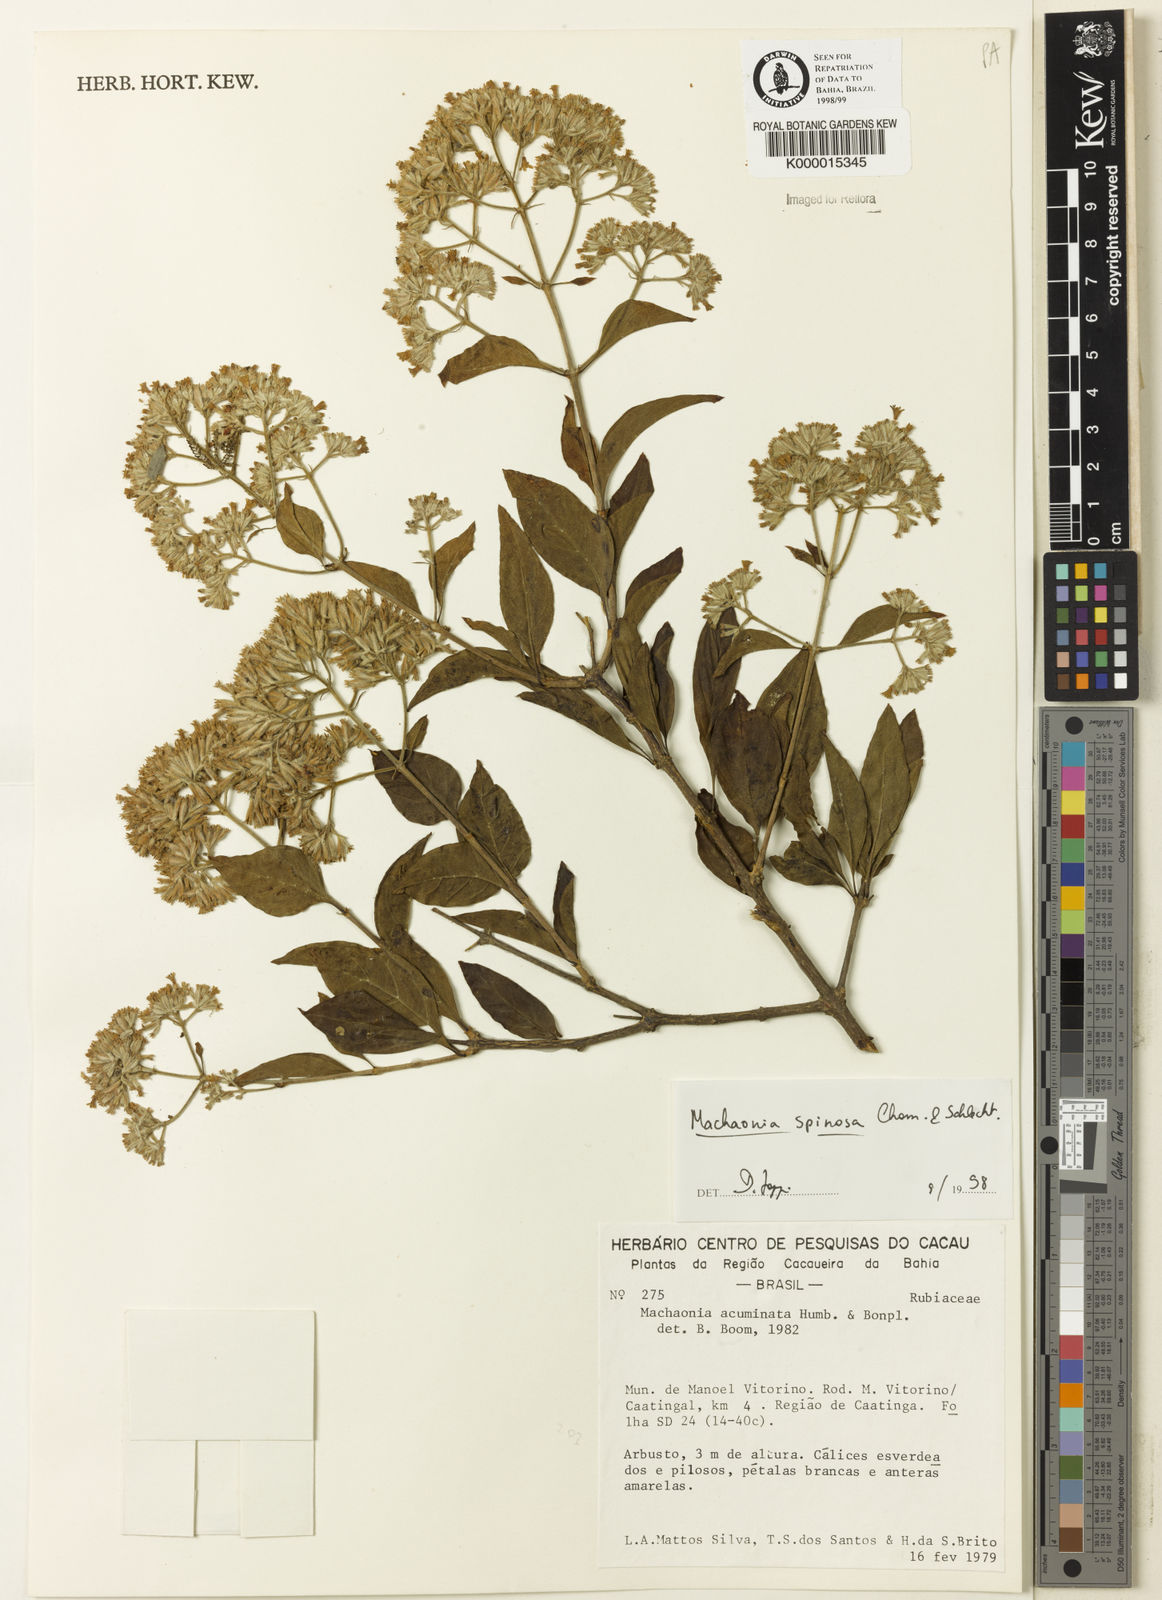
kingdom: Plantae
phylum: Tracheophyta
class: Magnoliopsida
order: Gentianales
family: Rubiaceae
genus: Machaonia
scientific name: Machaonia brasiliensis
